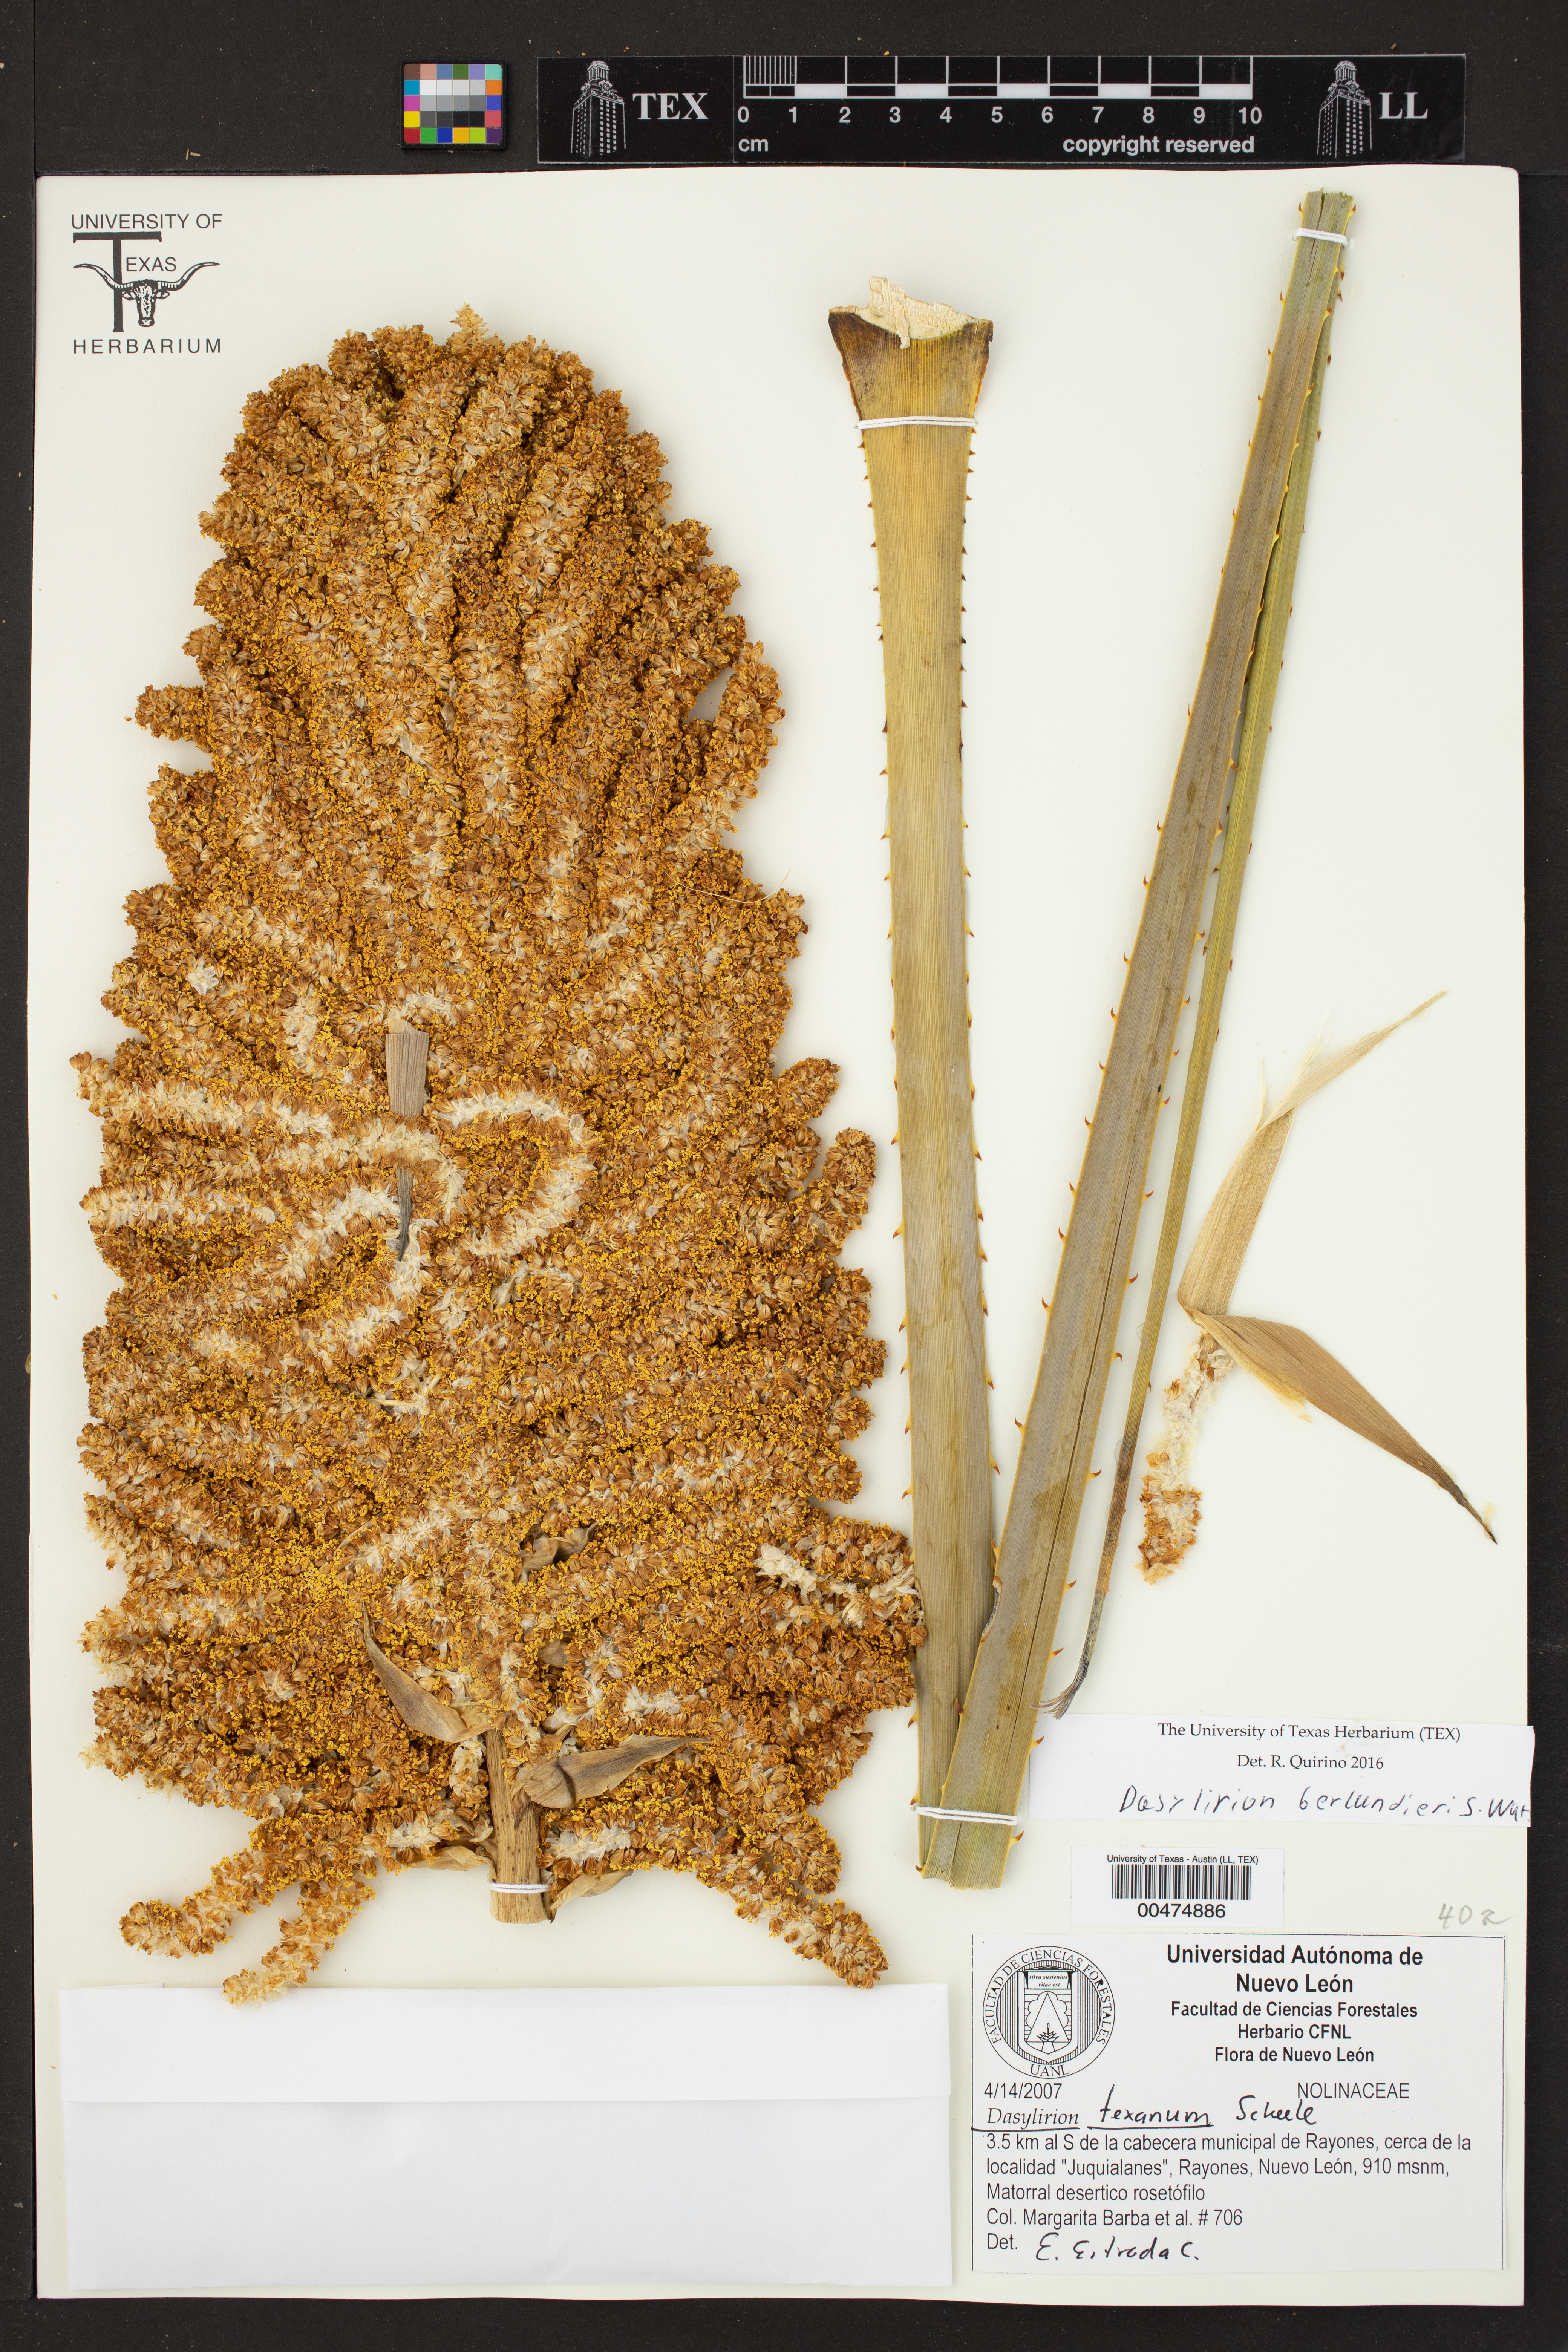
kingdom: Plantae
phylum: Tracheophyta
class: Liliopsida
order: Asparagales
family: Asparagaceae
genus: Dasylirion
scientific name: Dasylirion texanum
